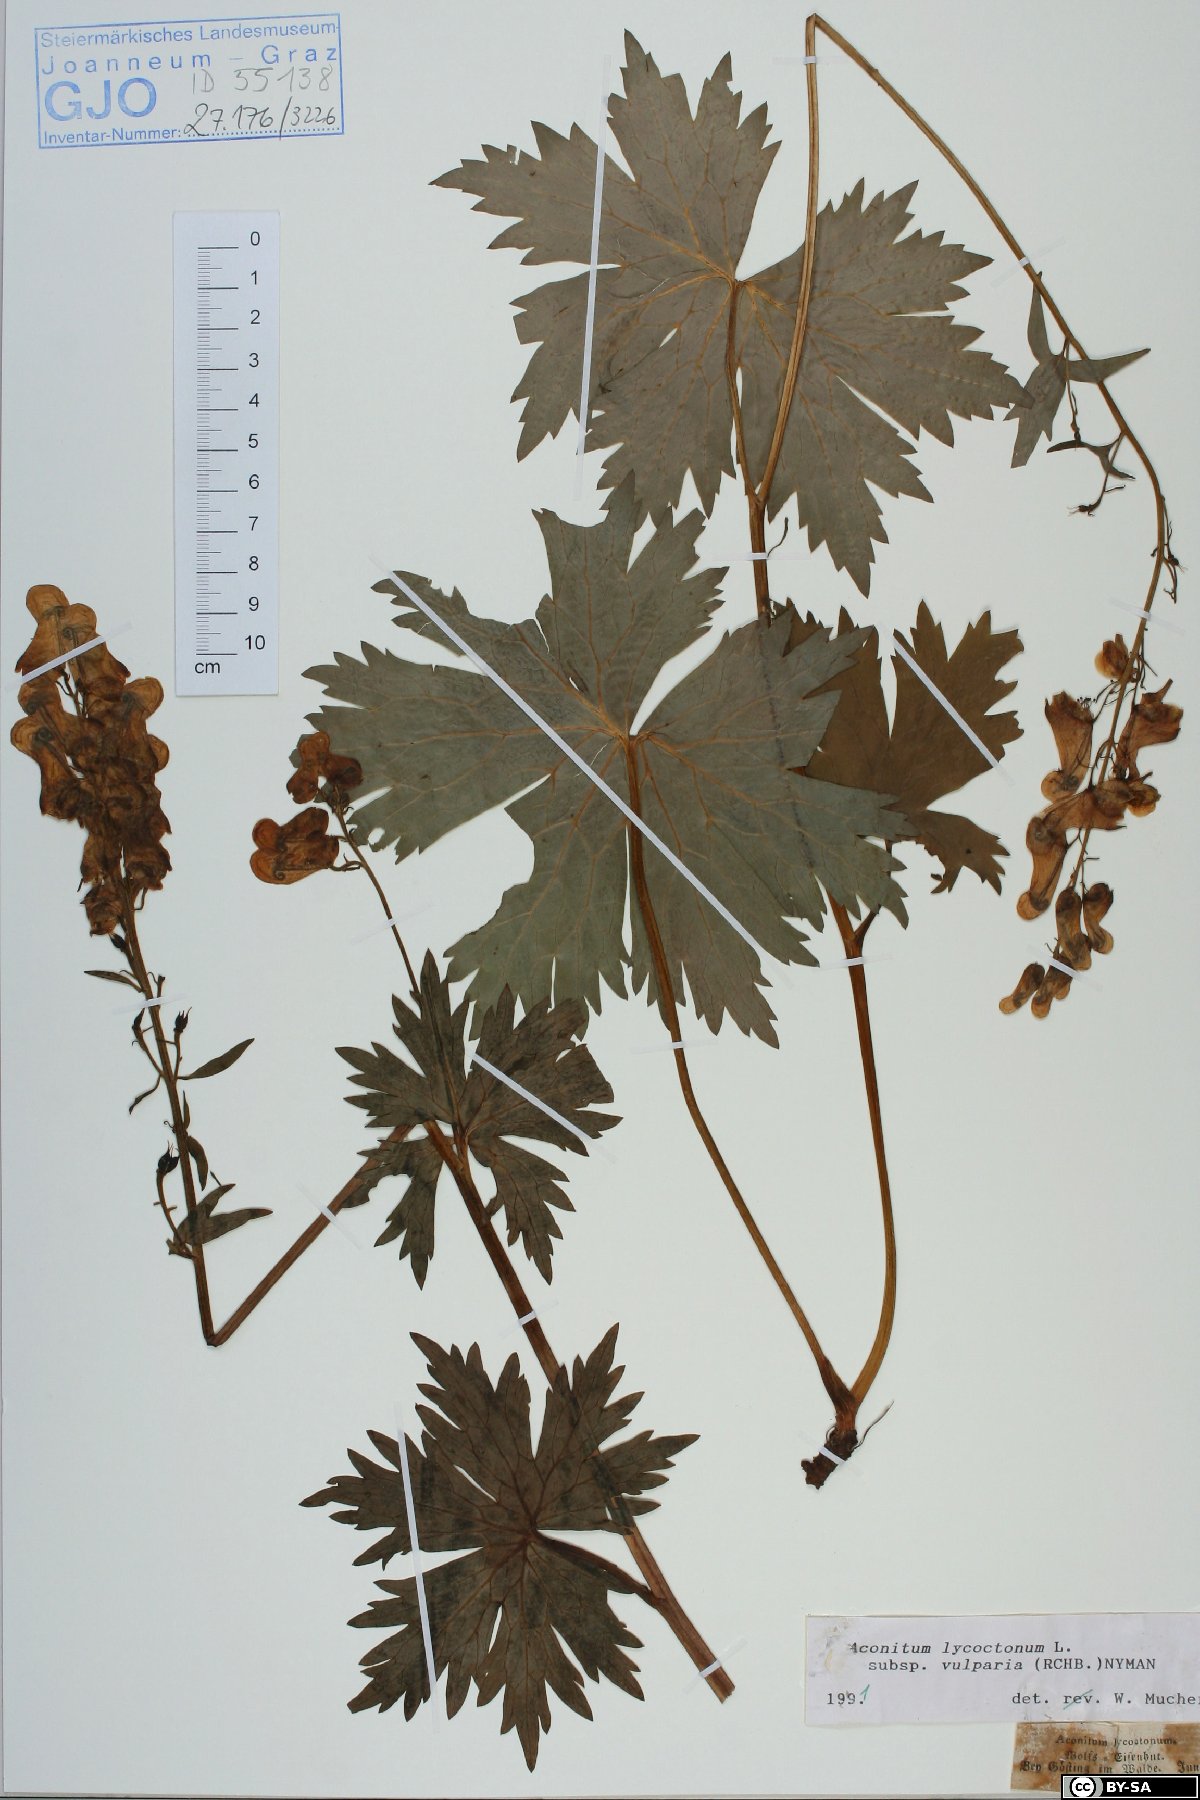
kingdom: Plantae
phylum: Tracheophyta
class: Magnoliopsida
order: Ranunculales
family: Ranunculaceae
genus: Aconitum
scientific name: Aconitum lycoctonum
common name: Wolf's-bane
